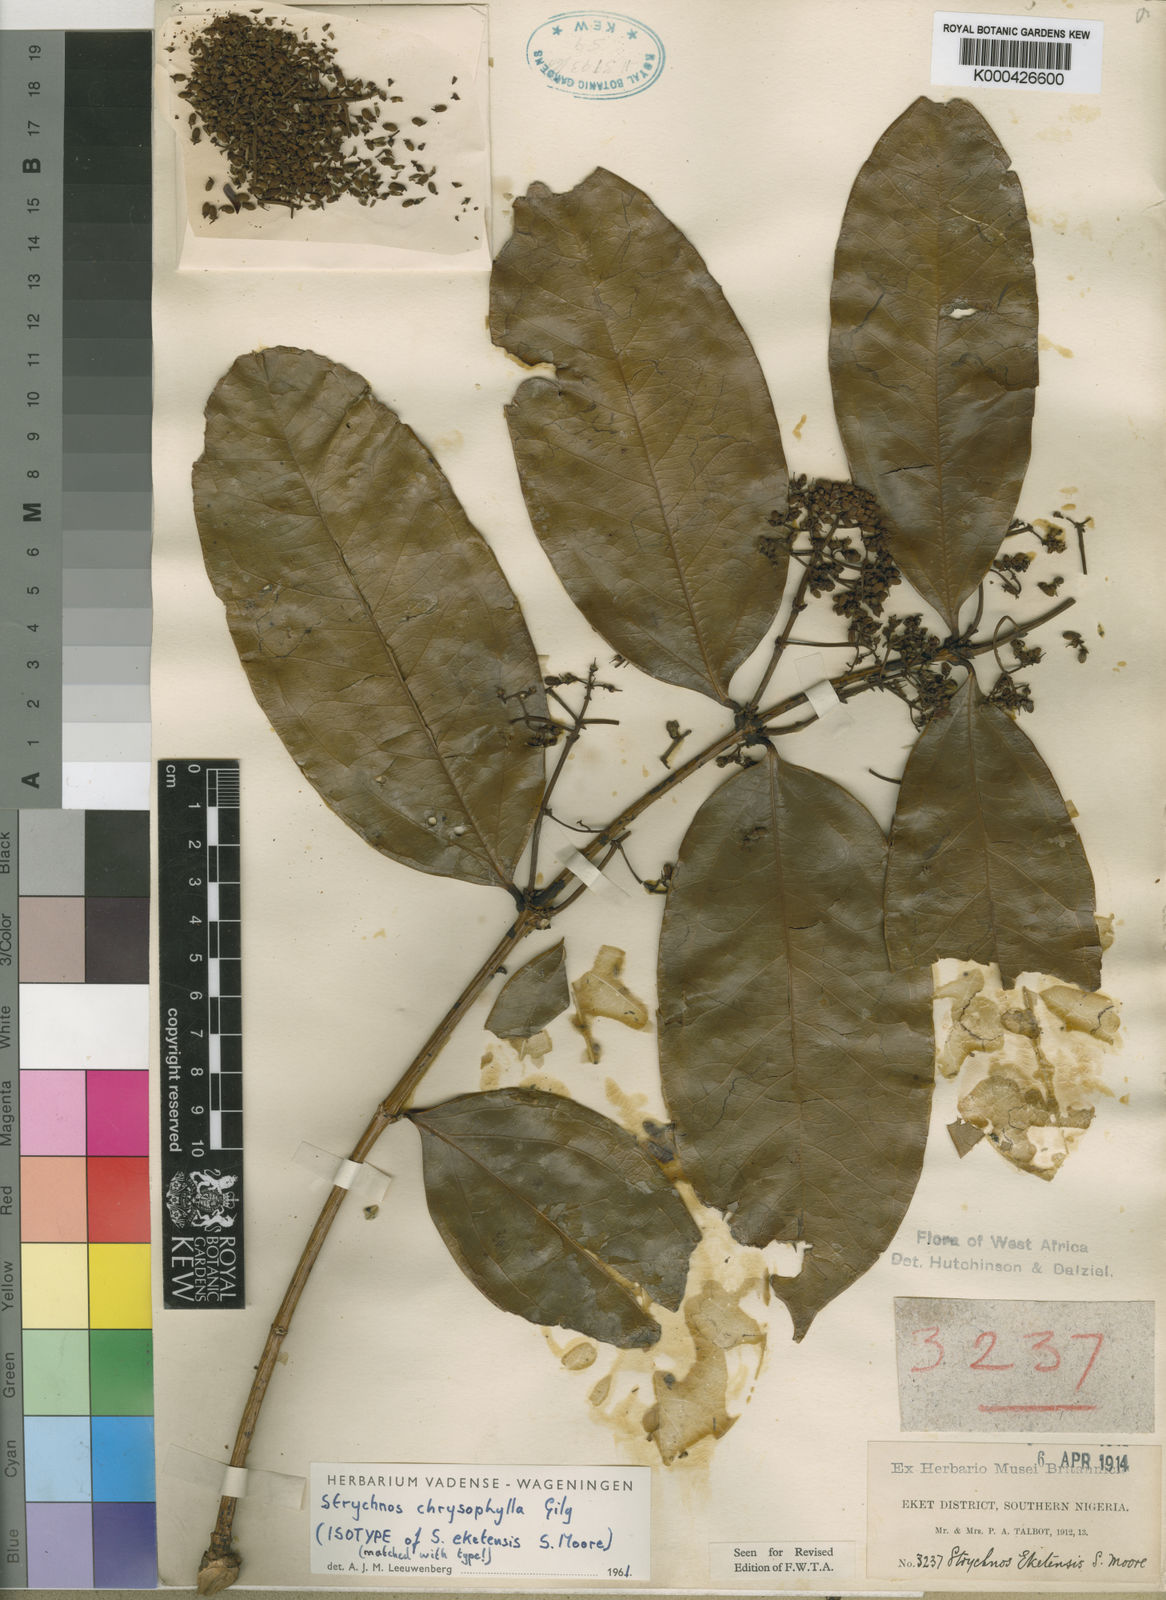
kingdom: Plantae
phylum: Tracheophyta
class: Magnoliopsida
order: Gentianales
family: Loganiaceae
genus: Strychnos
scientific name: Strychnos chrysophylla
